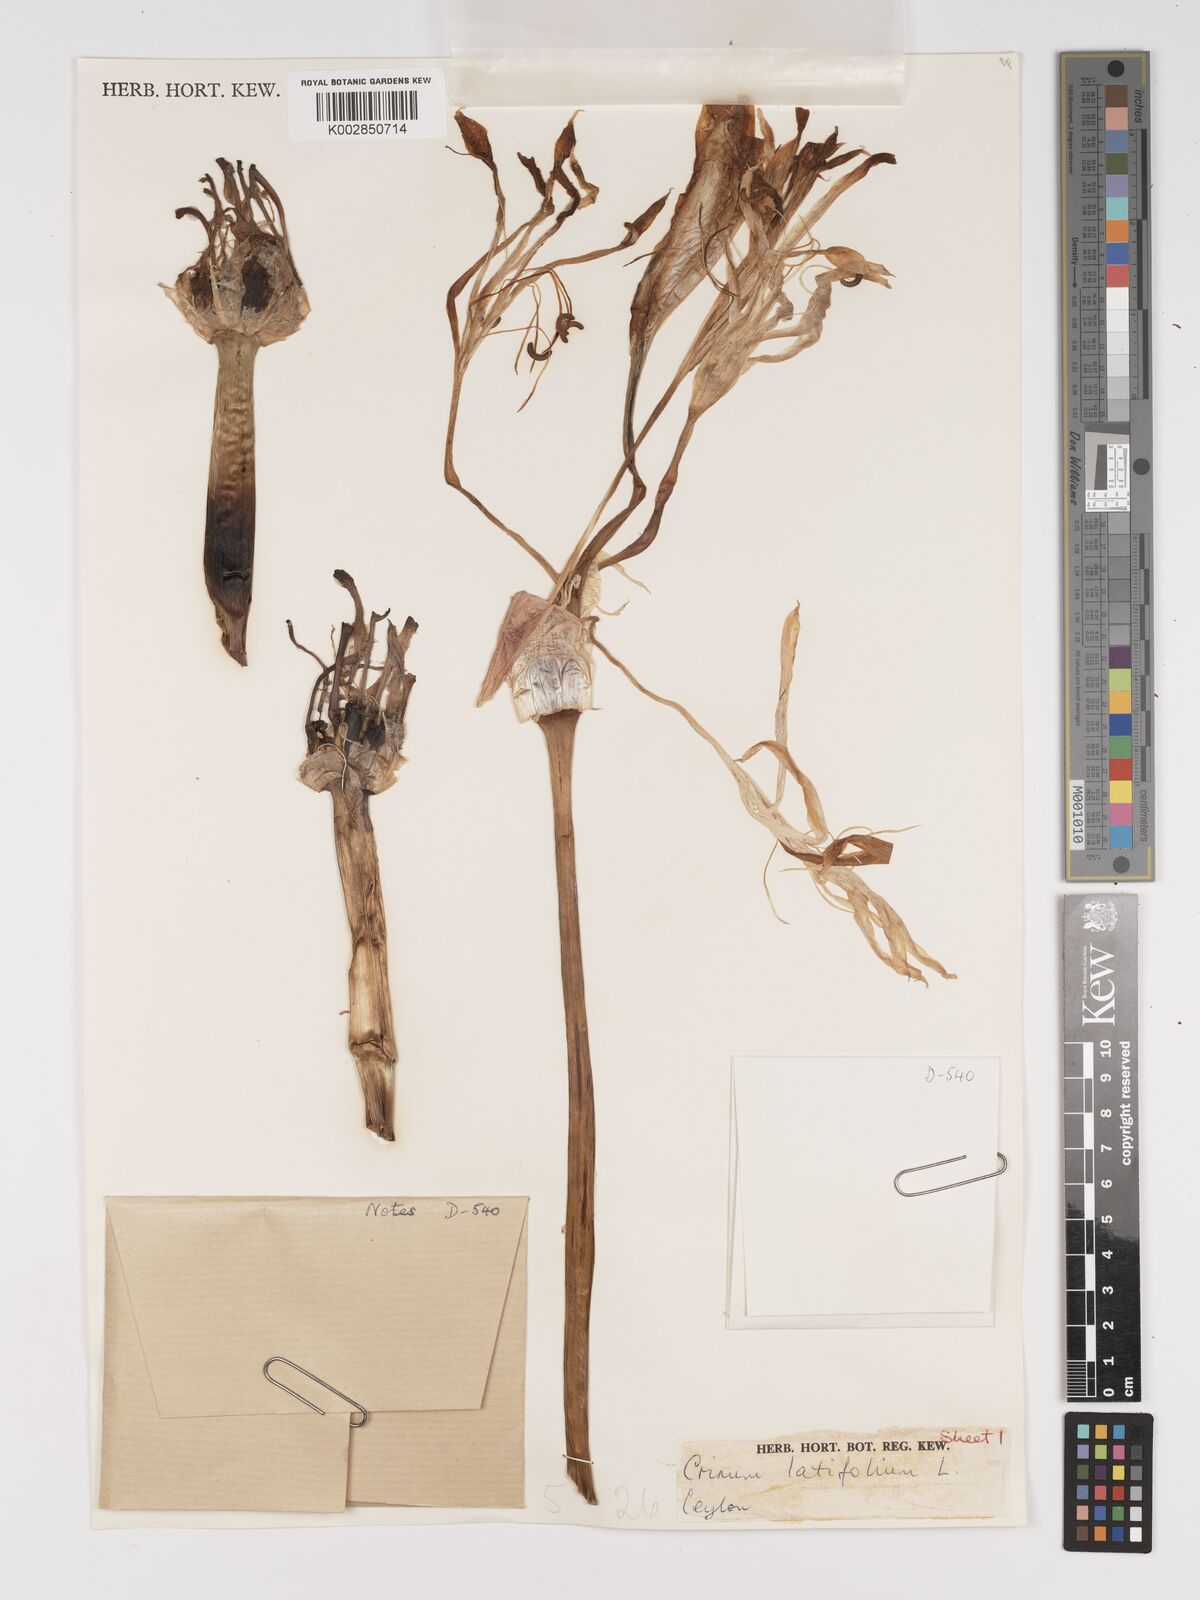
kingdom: Plantae
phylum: Tracheophyta
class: Liliopsida
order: Asparagales
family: Amaryllidaceae
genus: Crinum
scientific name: Crinum latifolium
